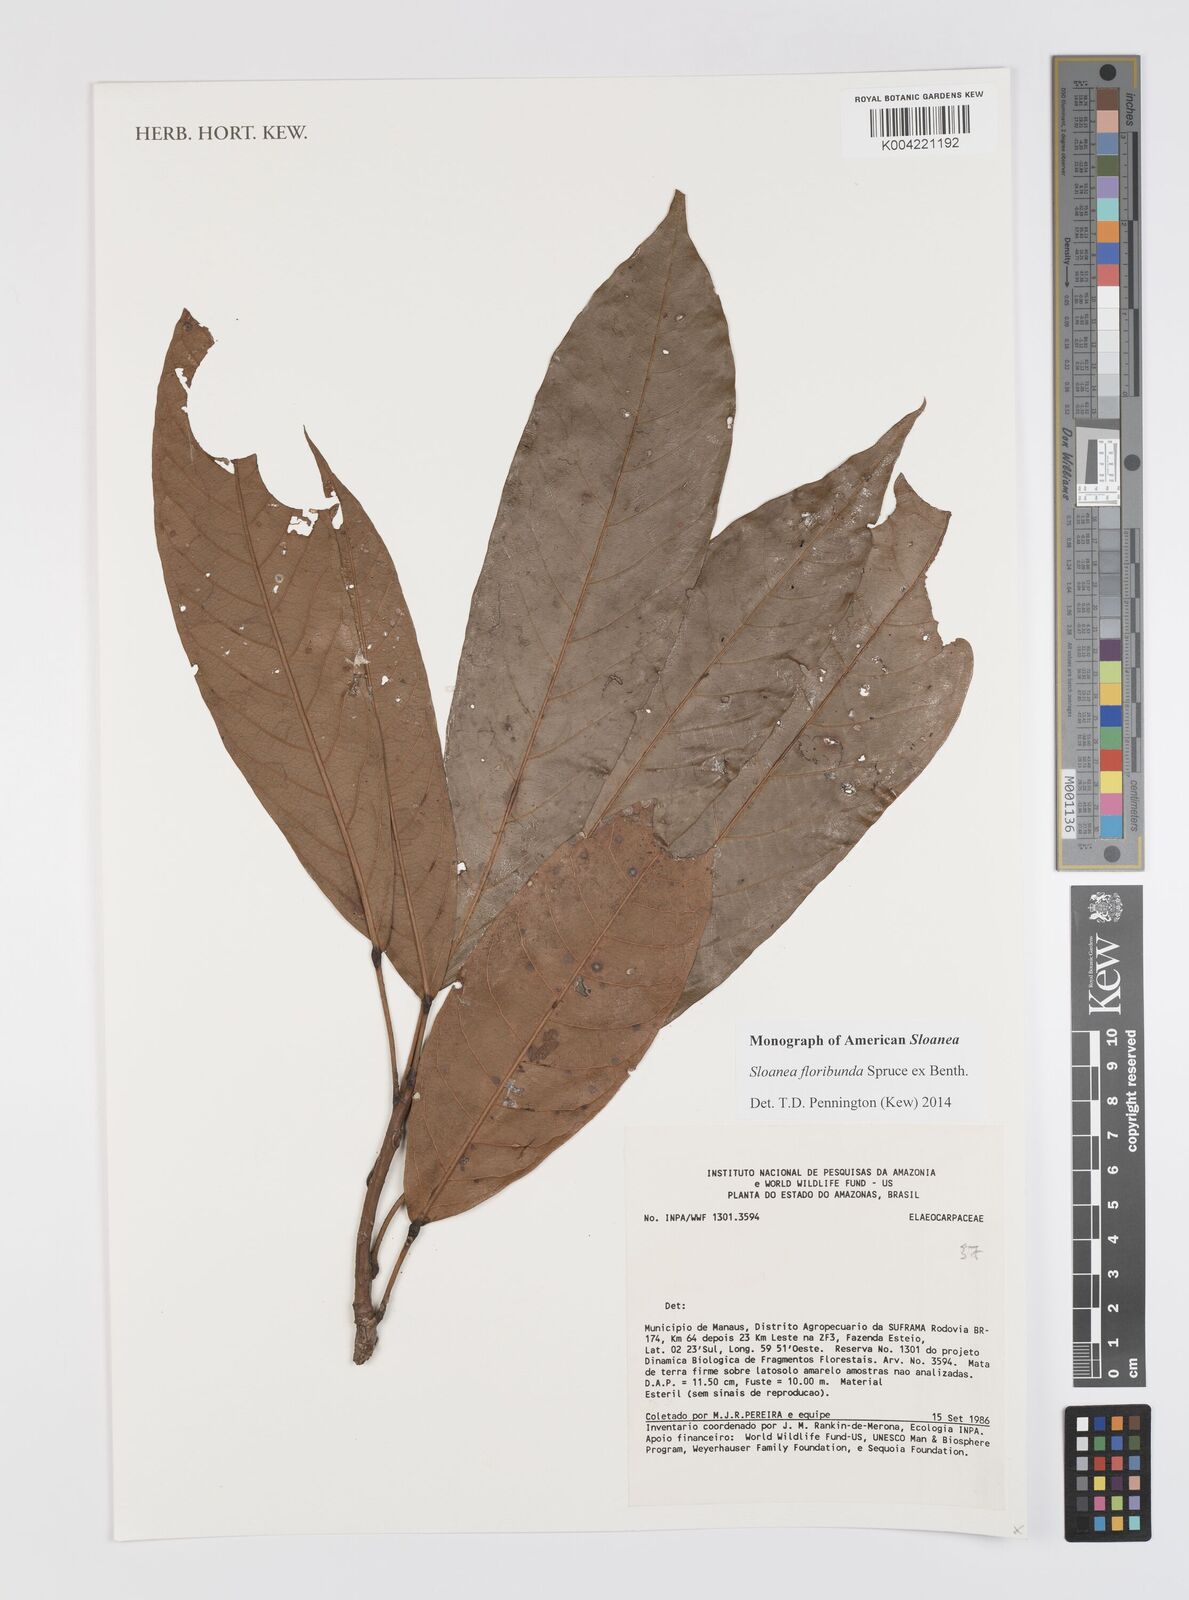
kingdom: Plantae
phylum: Tracheophyta
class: Magnoliopsida
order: Oxalidales
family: Elaeocarpaceae
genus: Sloanea
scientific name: Sloanea floribunda
